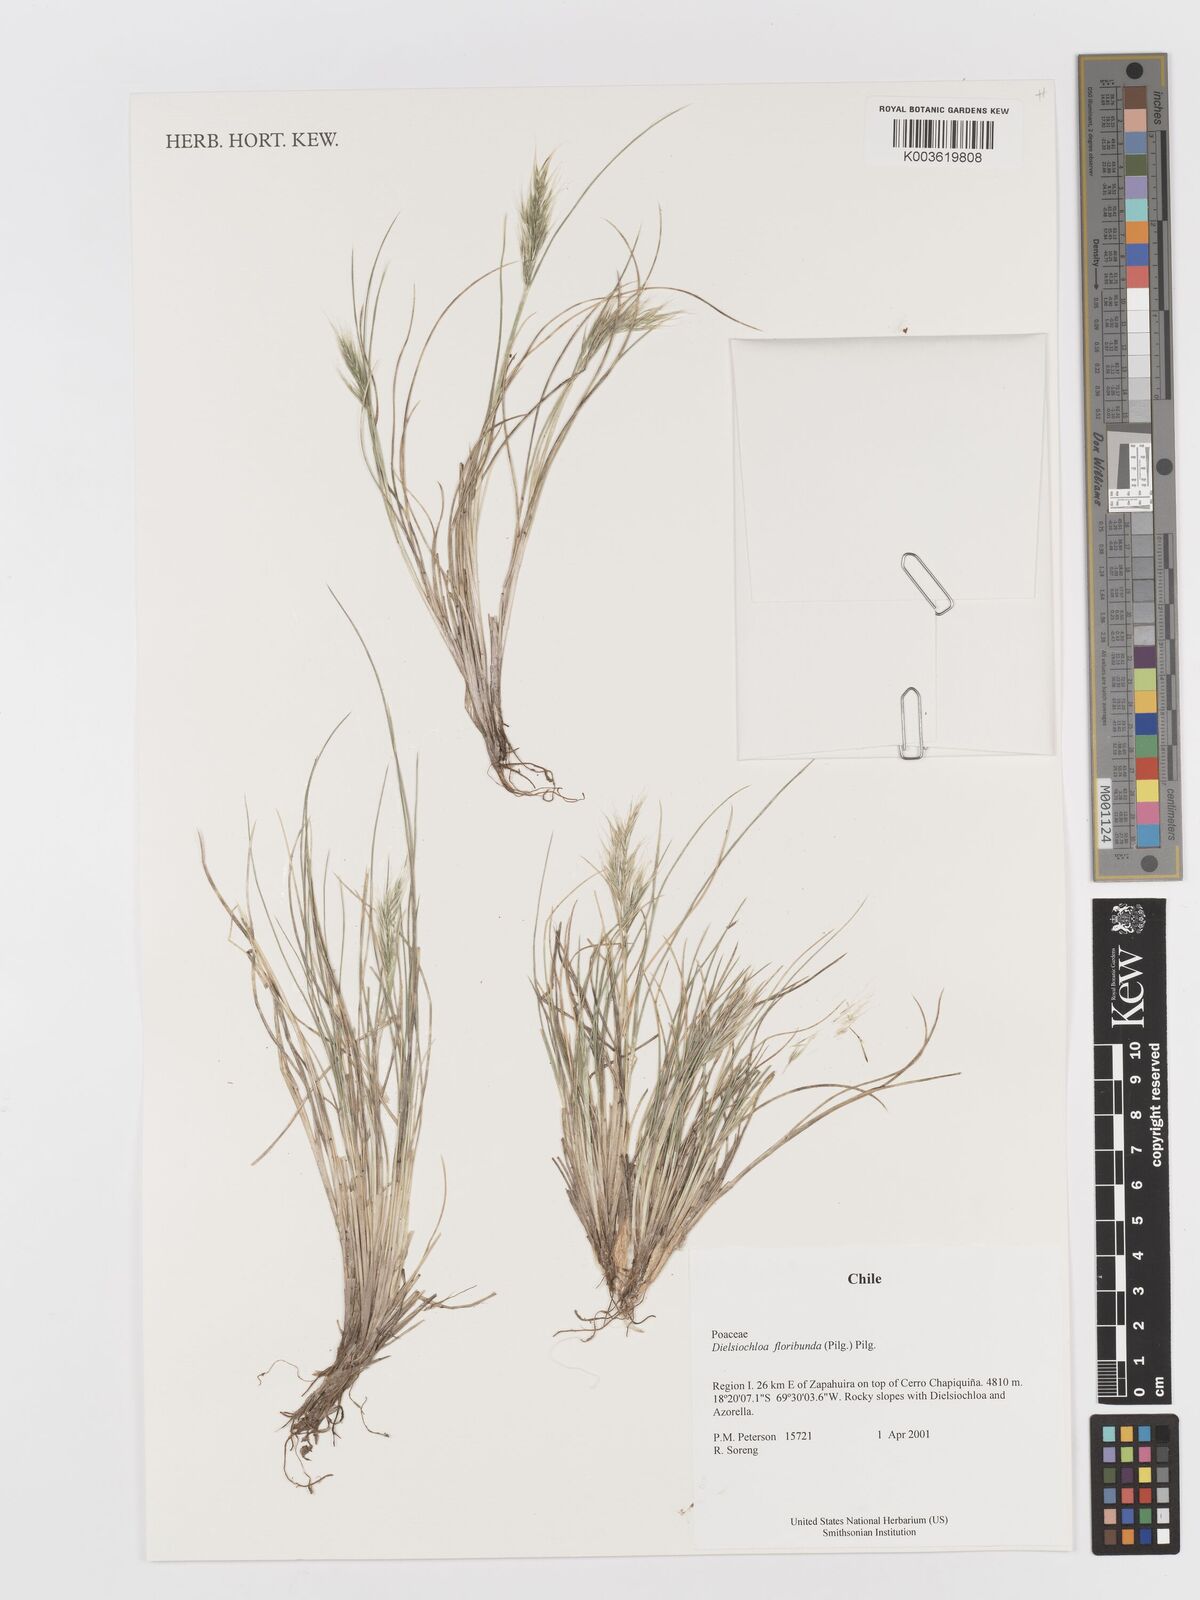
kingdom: Plantae
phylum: Tracheophyta
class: Liliopsida
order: Poales
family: Poaceae
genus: Festuca
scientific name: Festuca floribunda
